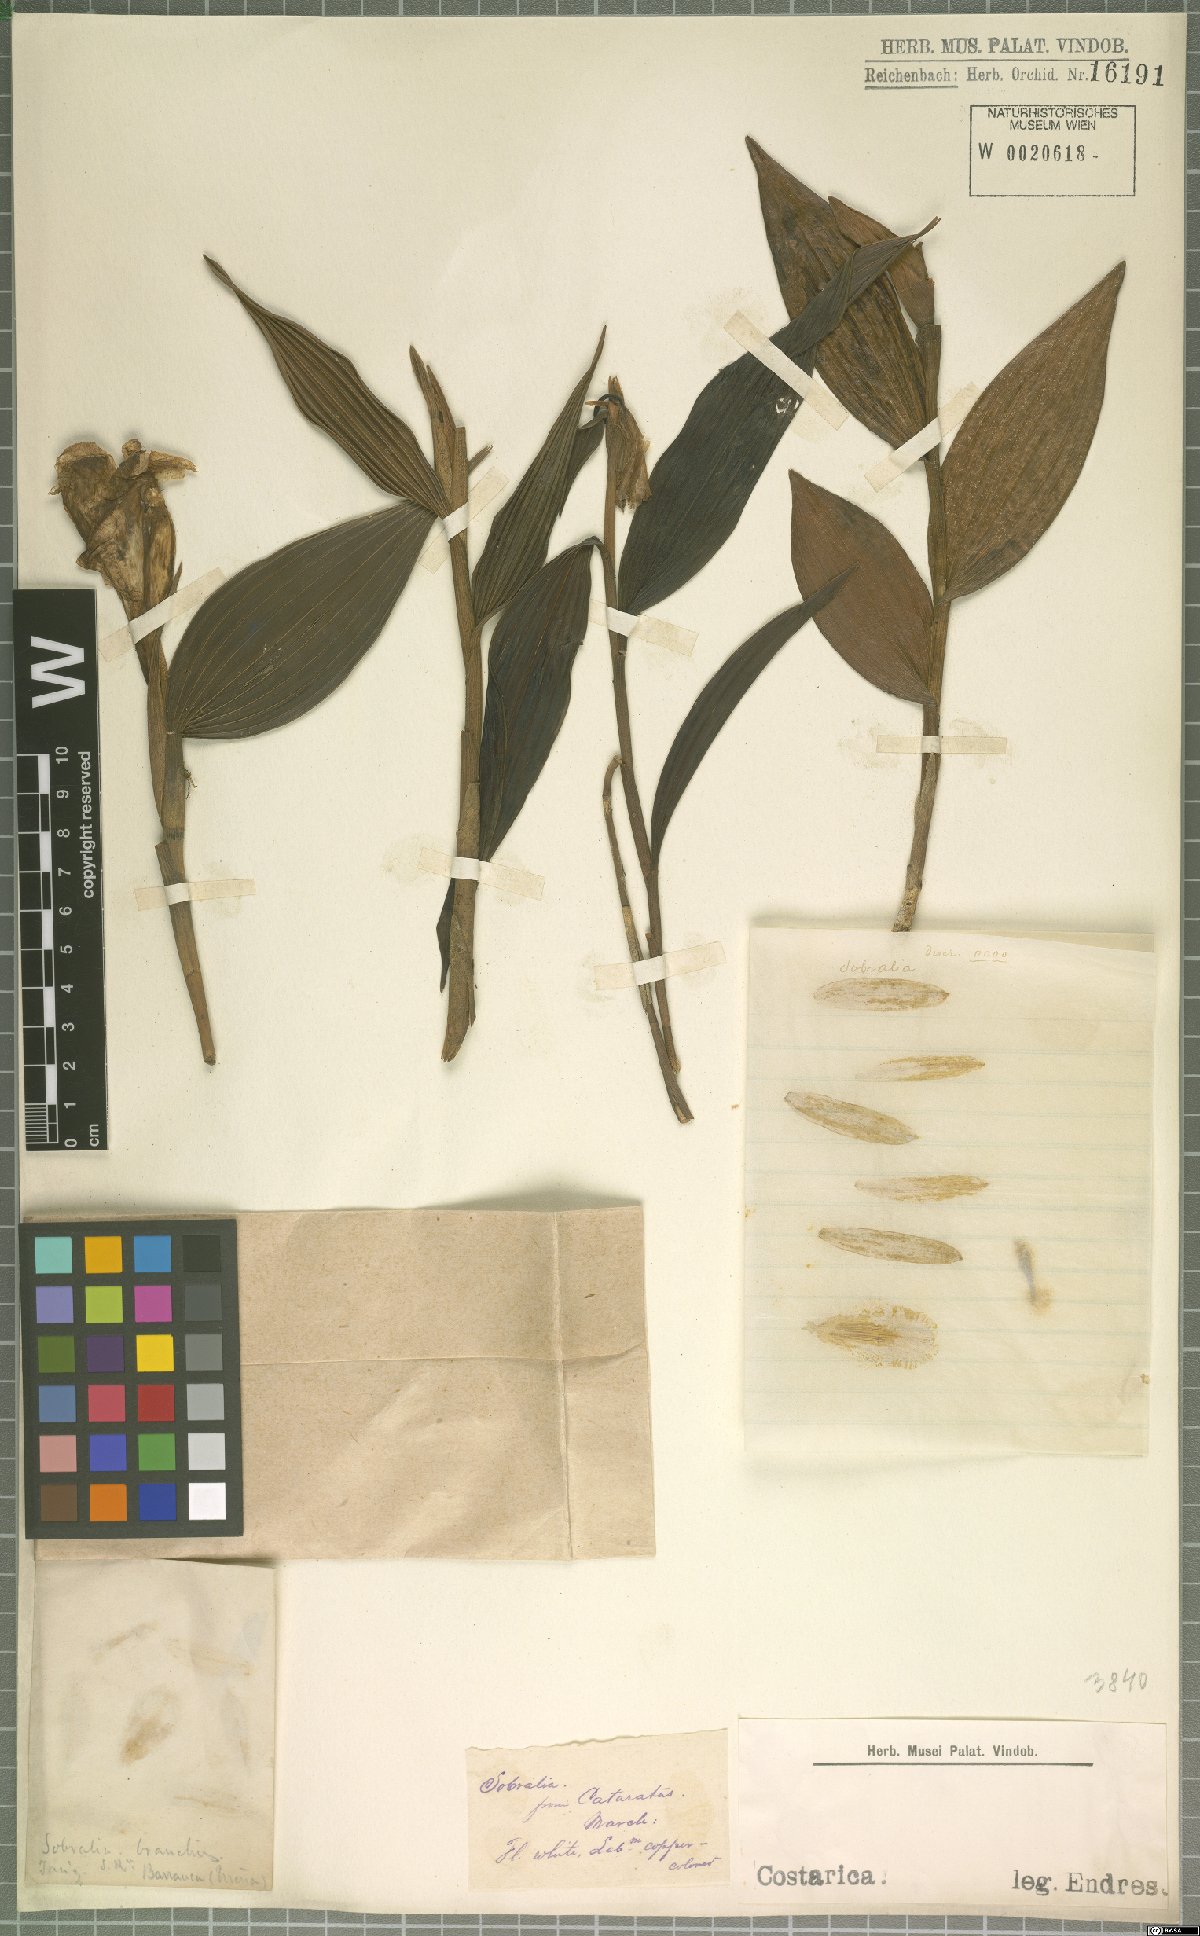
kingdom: Plantae
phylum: Tracheophyta
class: Liliopsida
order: Asparagales
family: Orchidaceae
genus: Sobralia
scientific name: Sobralia
